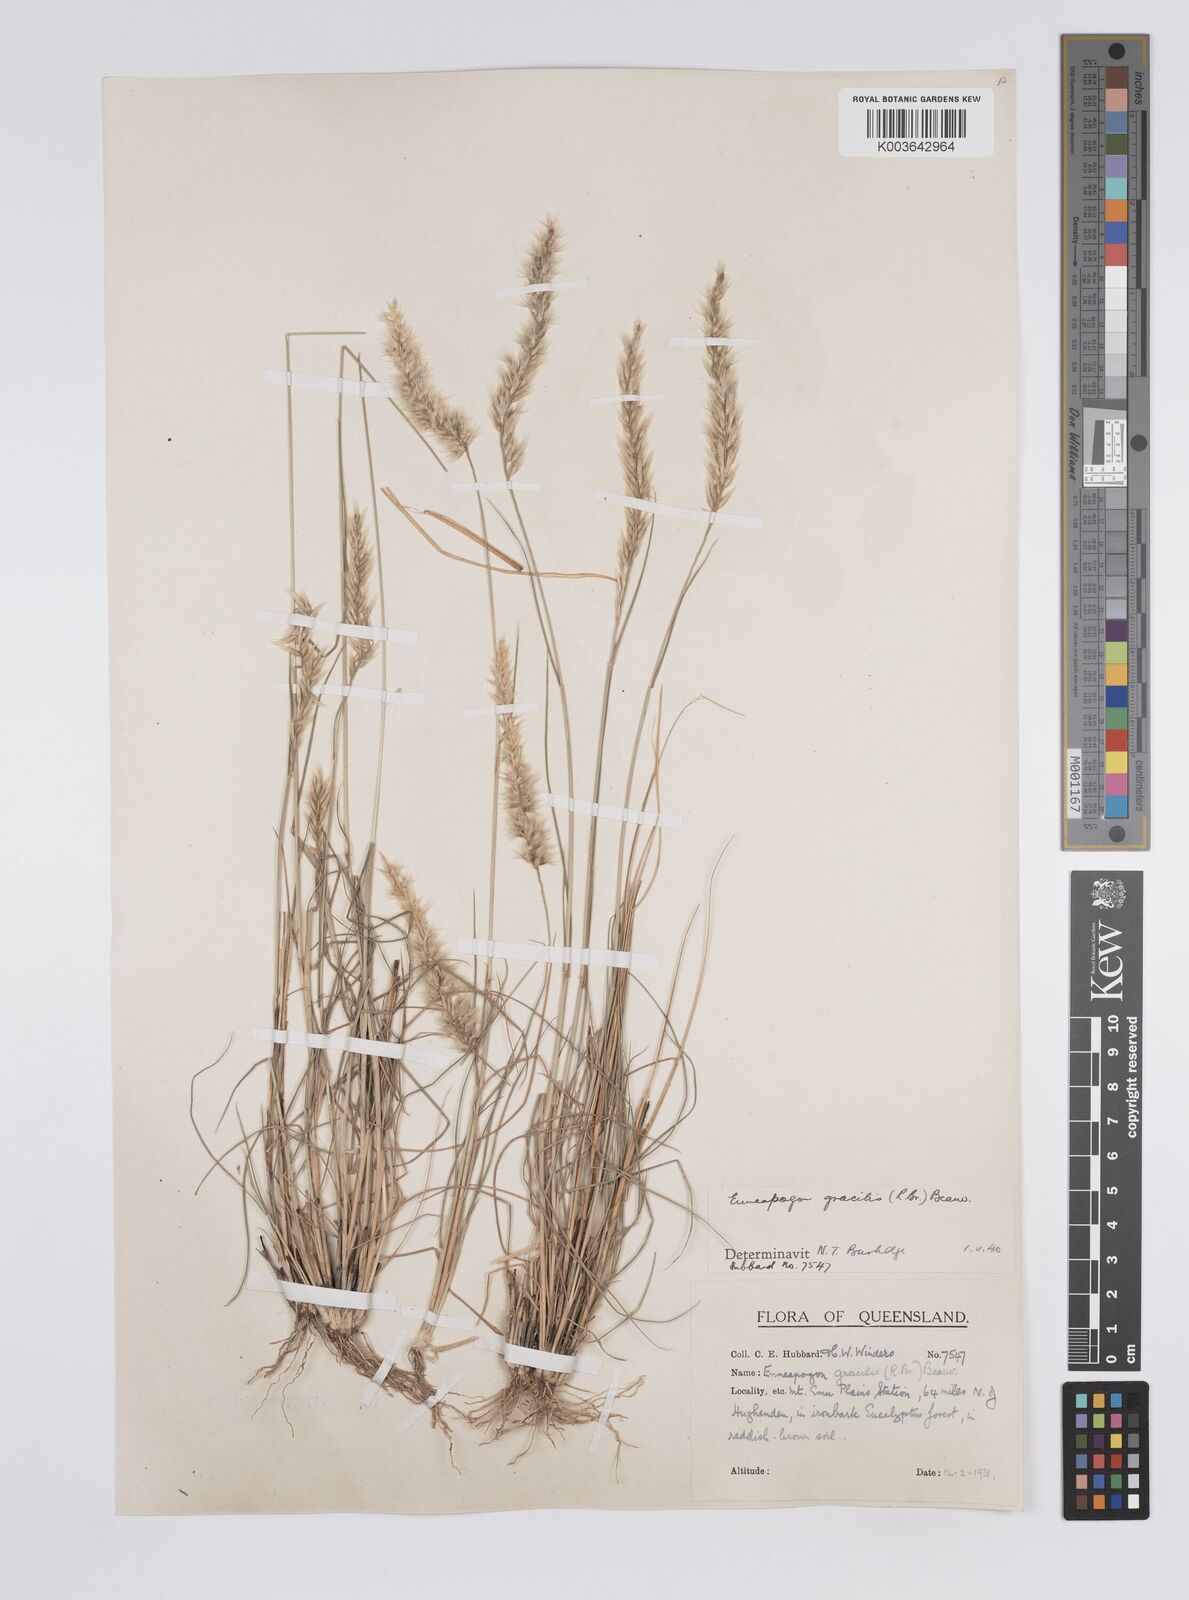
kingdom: Plantae
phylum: Tracheophyta
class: Liliopsida
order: Poales
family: Poaceae
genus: Enneapogon
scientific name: Enneapogon gracilis
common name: Slender bottle-washers
